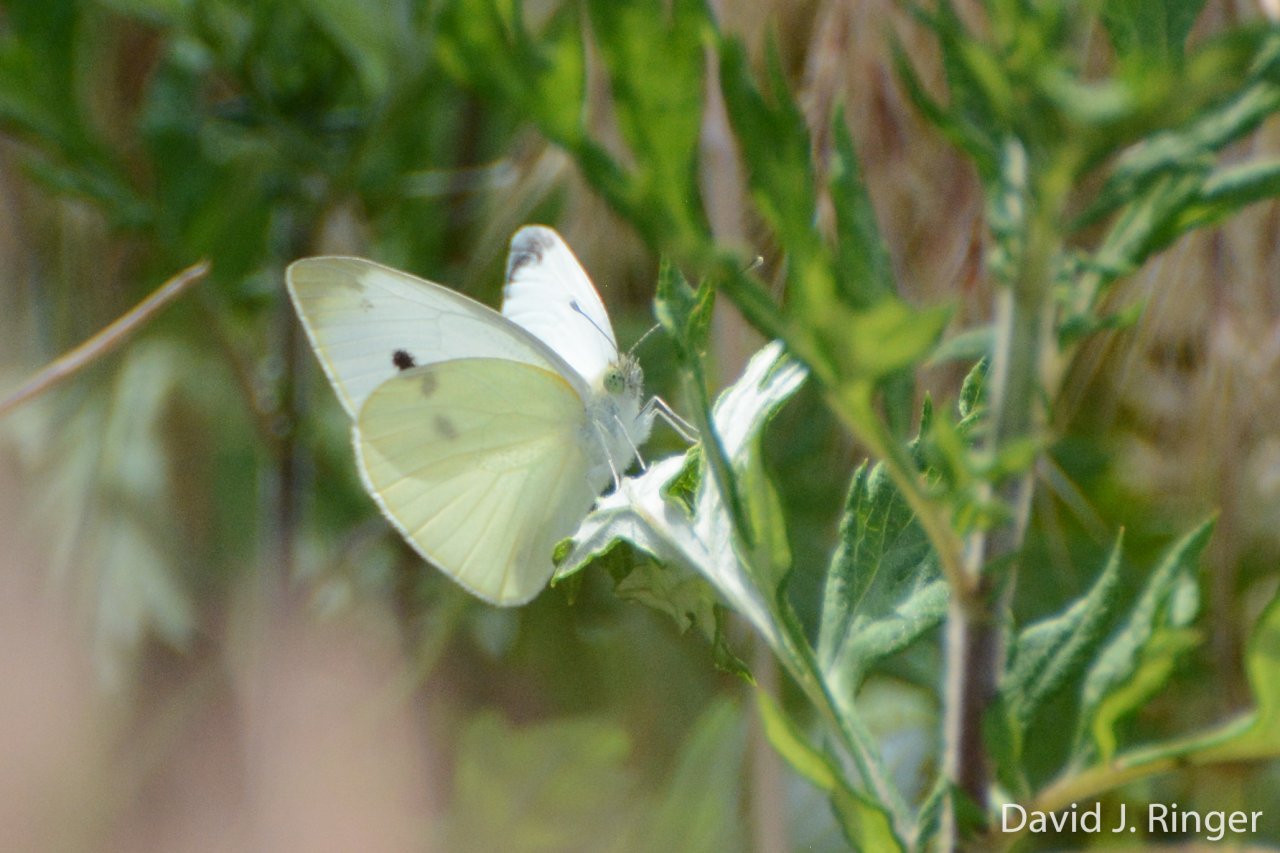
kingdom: Animalia
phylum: Arthropoda
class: Insecta
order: Lepidoptera
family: Pieridae
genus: Pieris
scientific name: Pieris rapae
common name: Cabbage White
